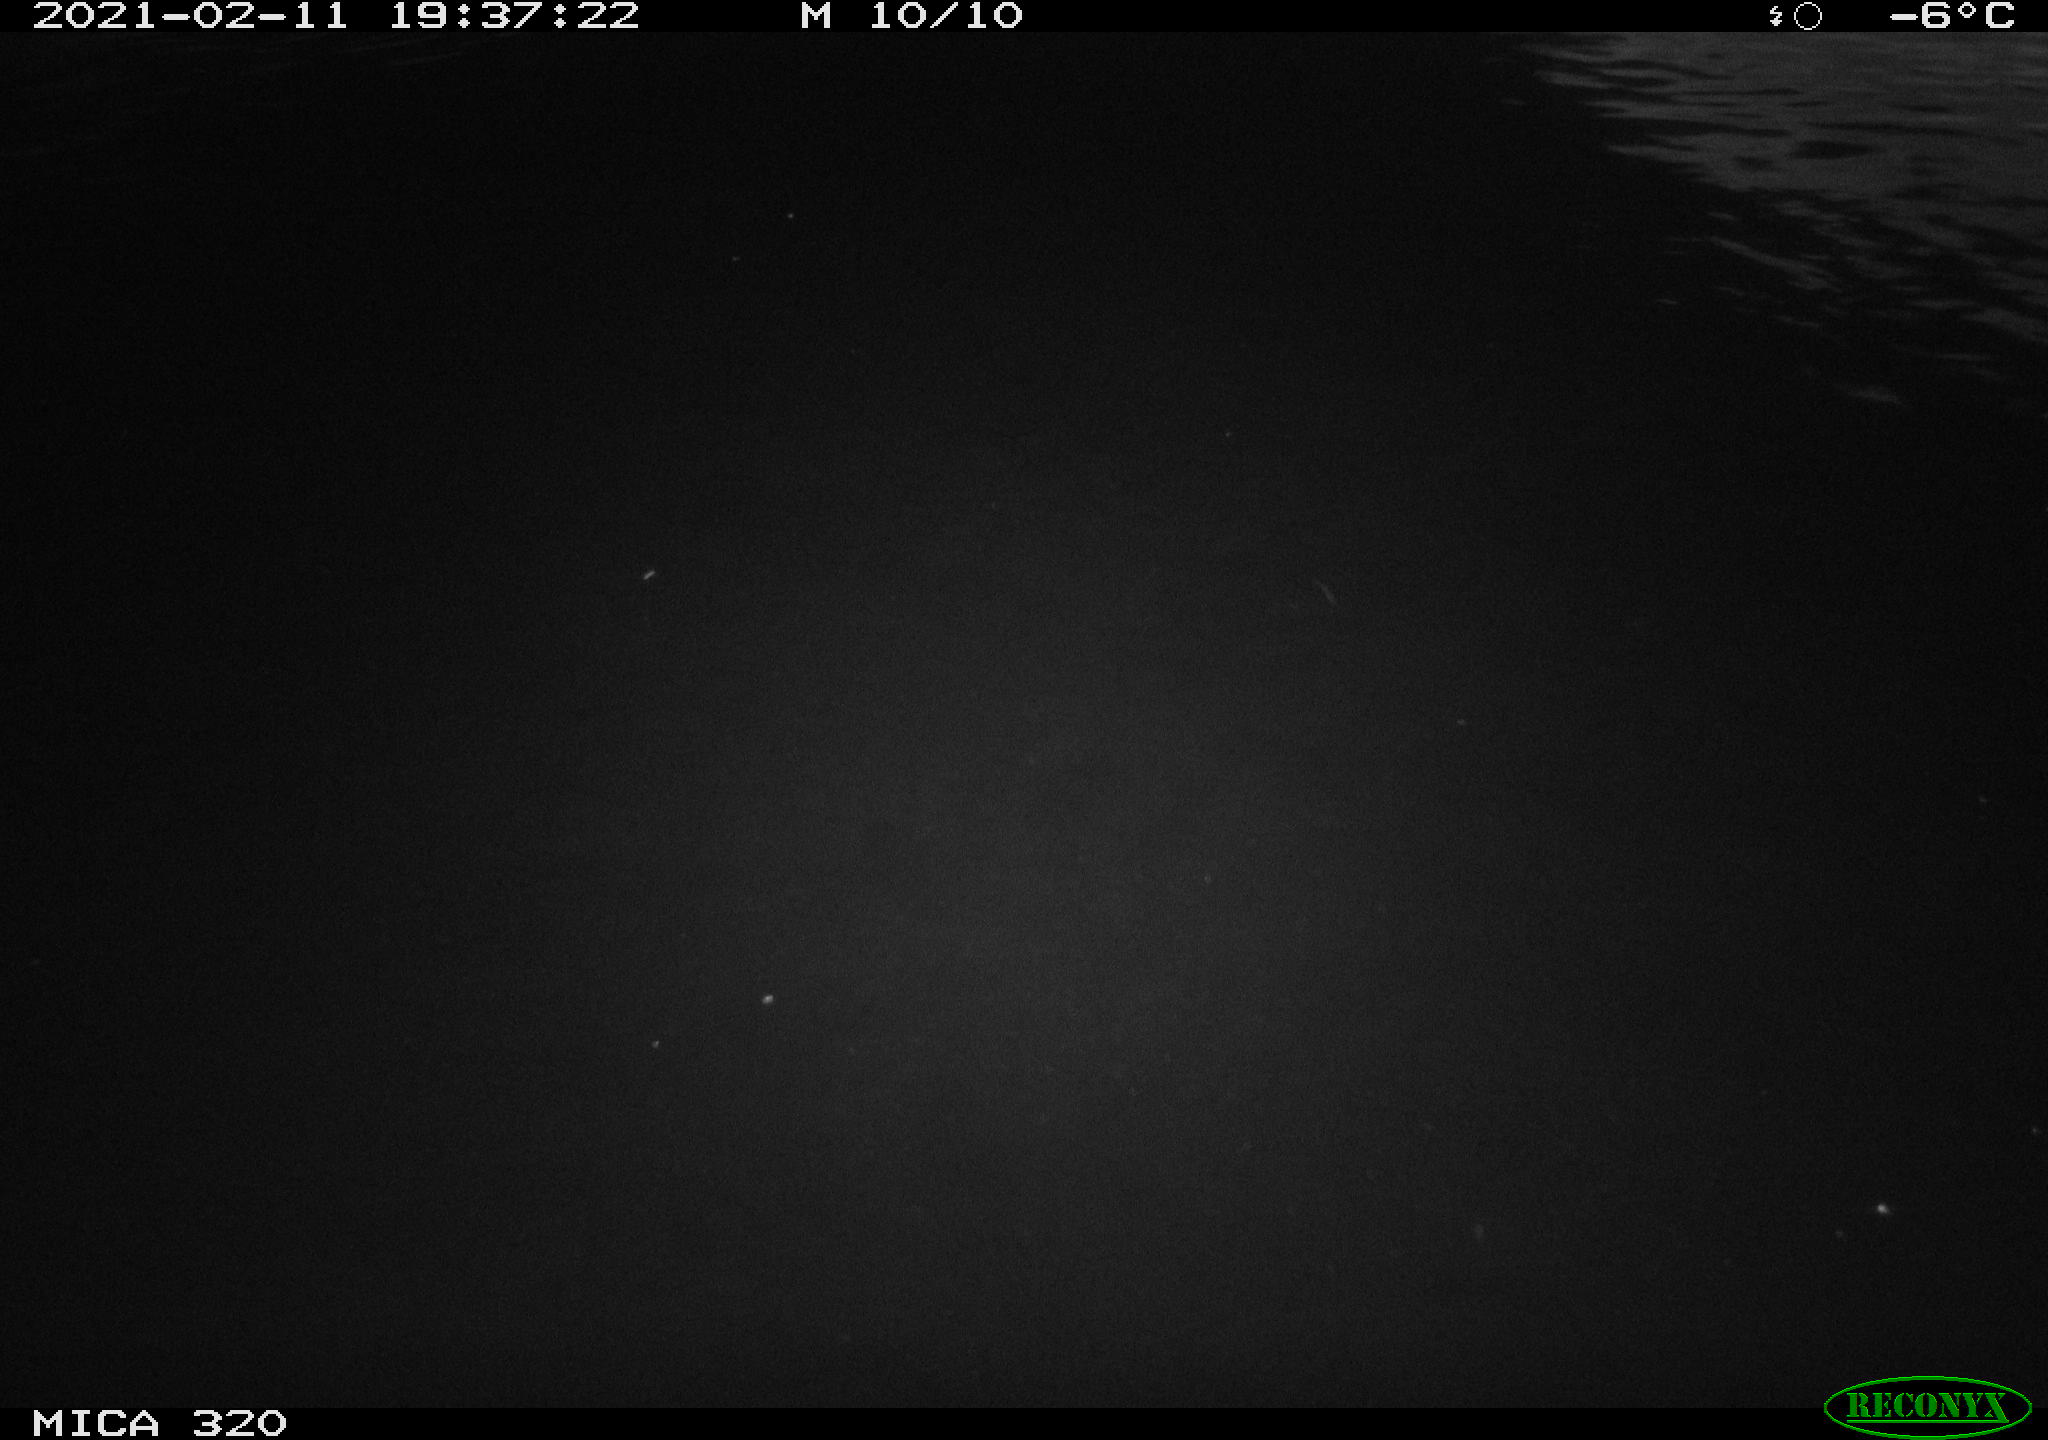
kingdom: Animalia
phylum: Chordata
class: Aves
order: Anseriformes
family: Anatidae
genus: Anas
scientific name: Anas platyrhynchos
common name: Mallard
